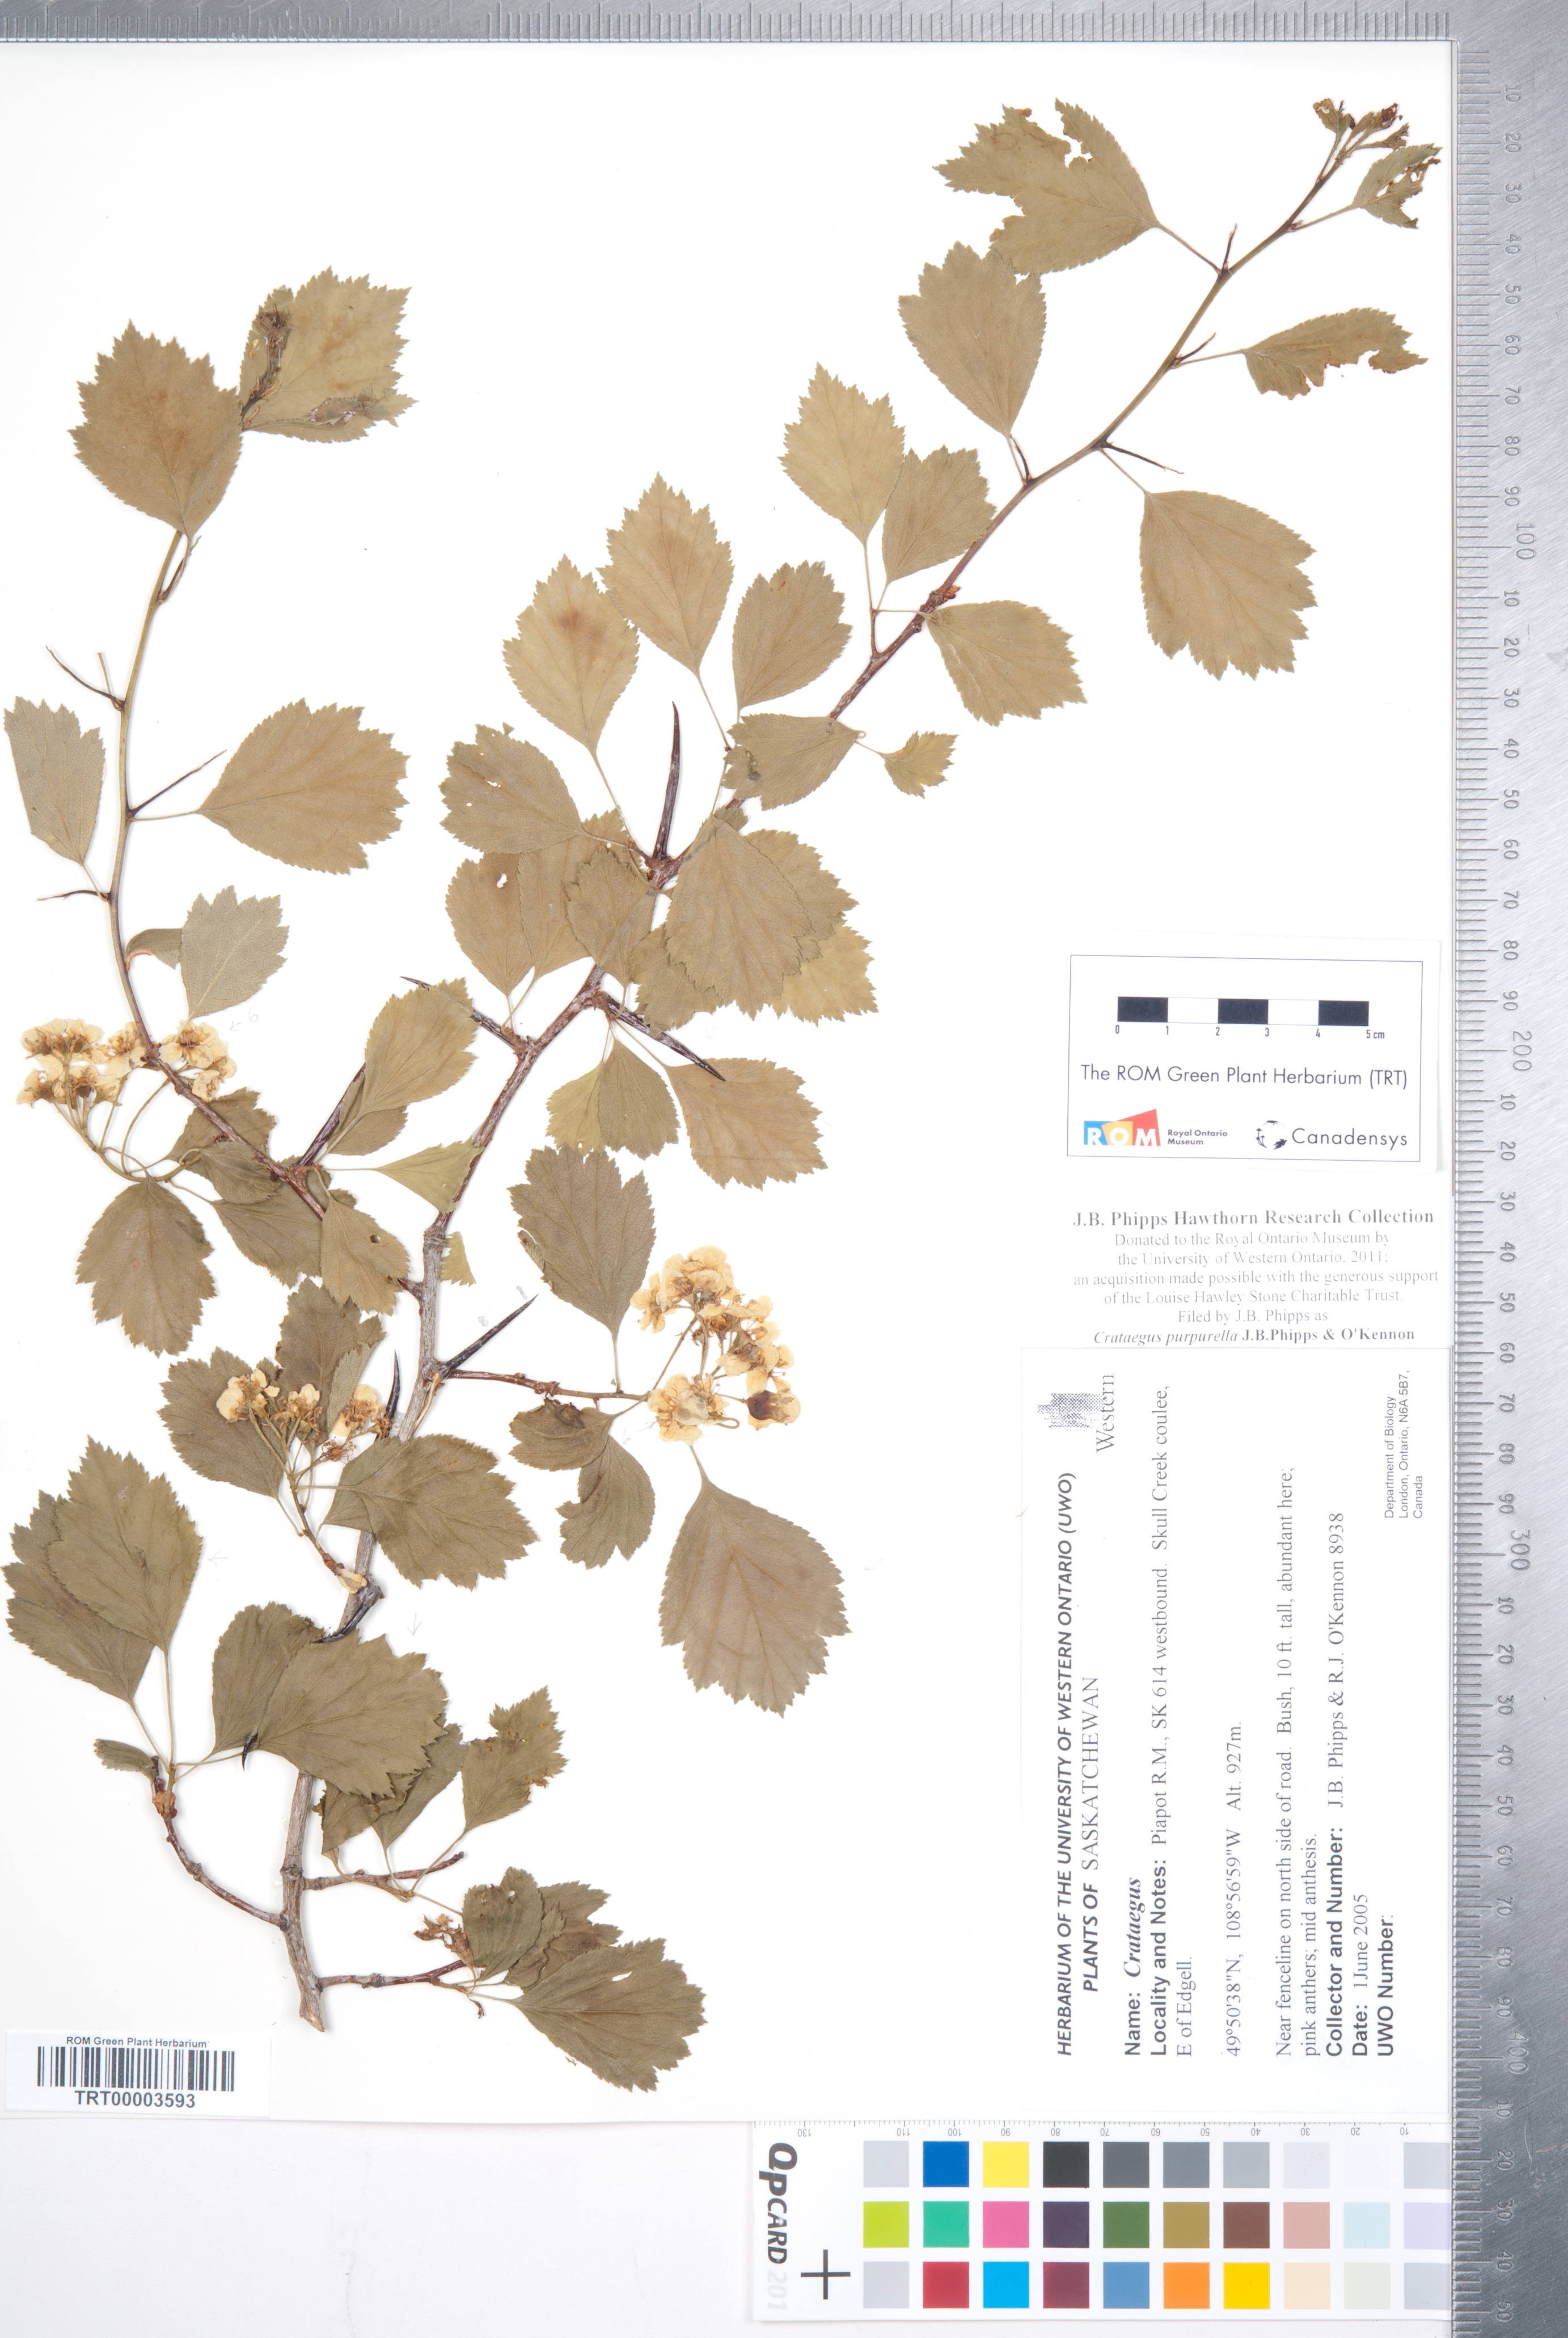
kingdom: Plantae
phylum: Tracheophyta
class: Magnoliopsida
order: Rosales
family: Rosaceae
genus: Crataegus
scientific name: Crataegus purpurella
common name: Loch lomond hawthorn
